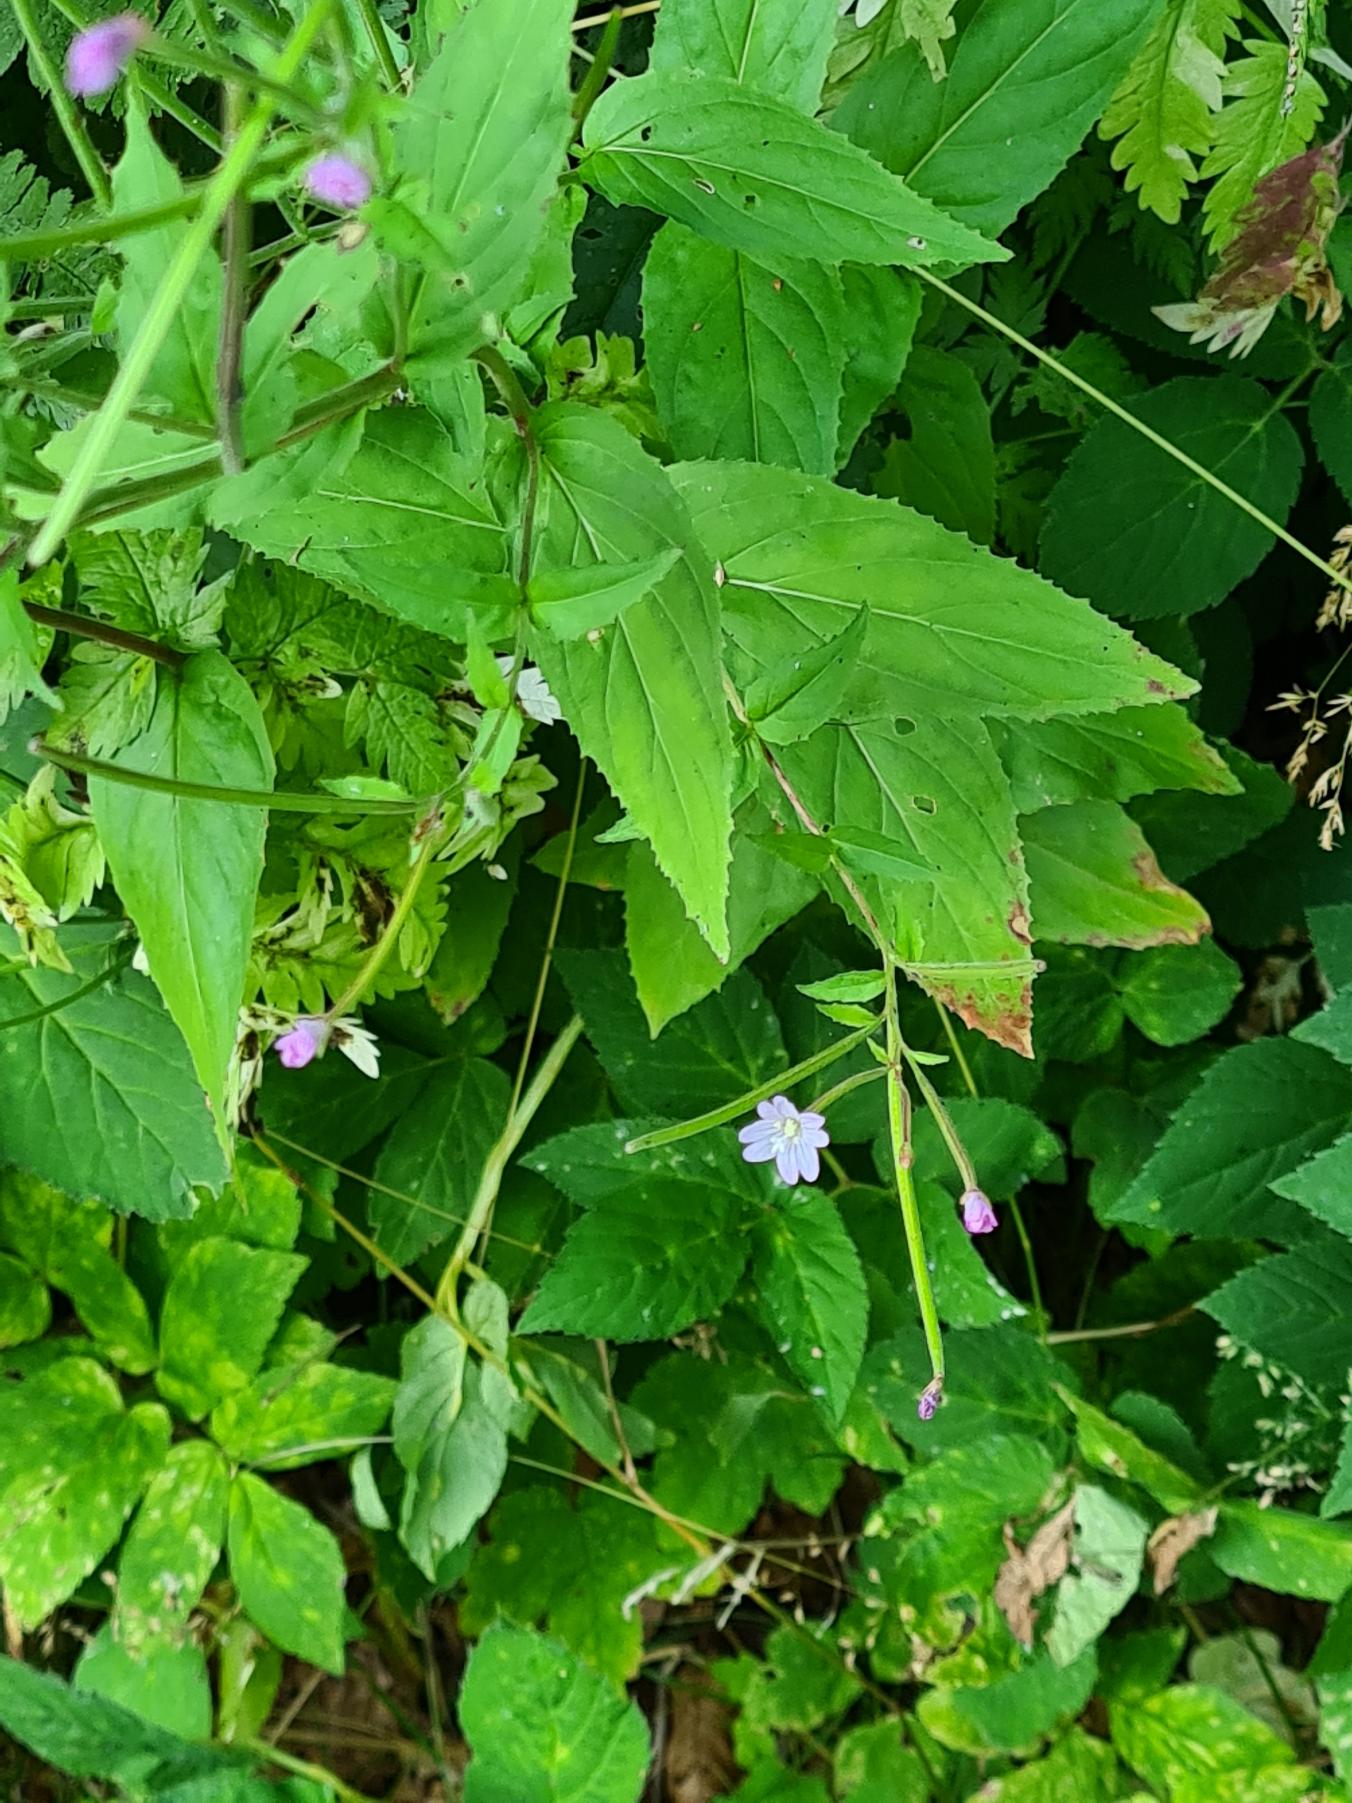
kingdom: Plantae
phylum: Tracheophyta
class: Magnoliopsida
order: Myrtales
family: Onagraceae
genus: Epilobium
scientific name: Epilobium montanum
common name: Glat dueurt
